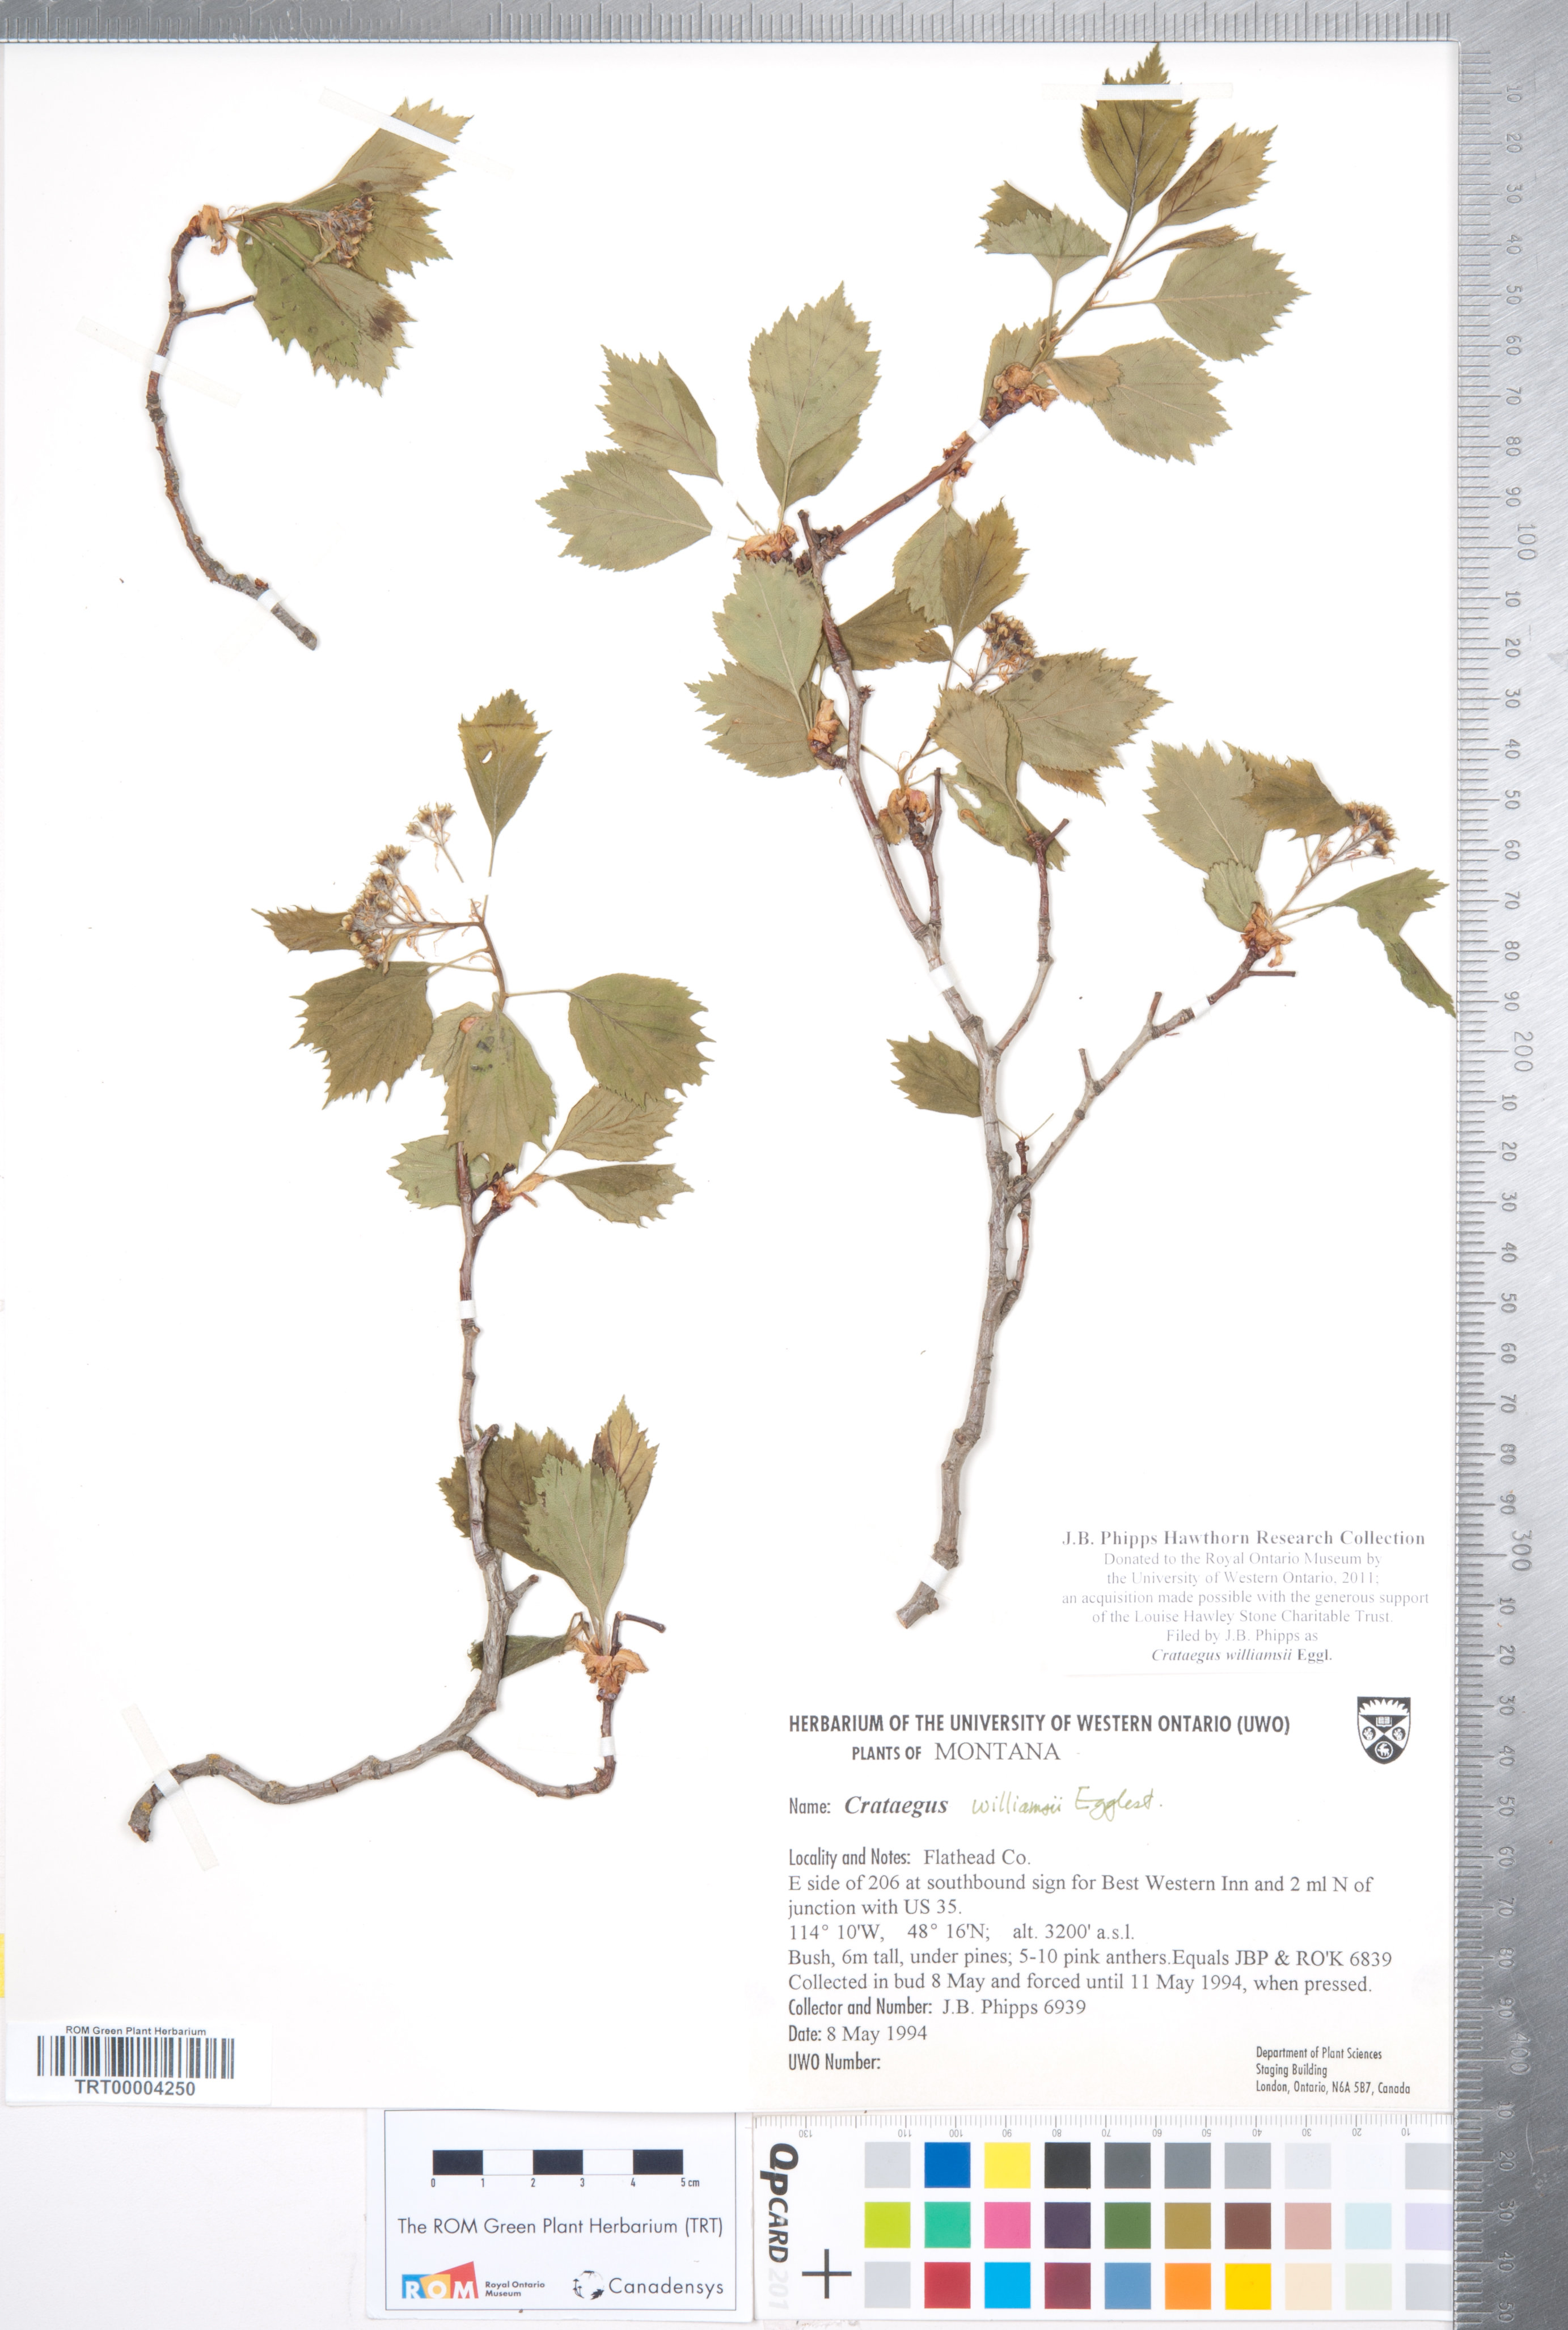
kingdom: Plantae
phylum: Tracheophyta
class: Magnoliopsida
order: Rosales
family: Rosaceae
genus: Crataegus
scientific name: Crataegus williamsii
